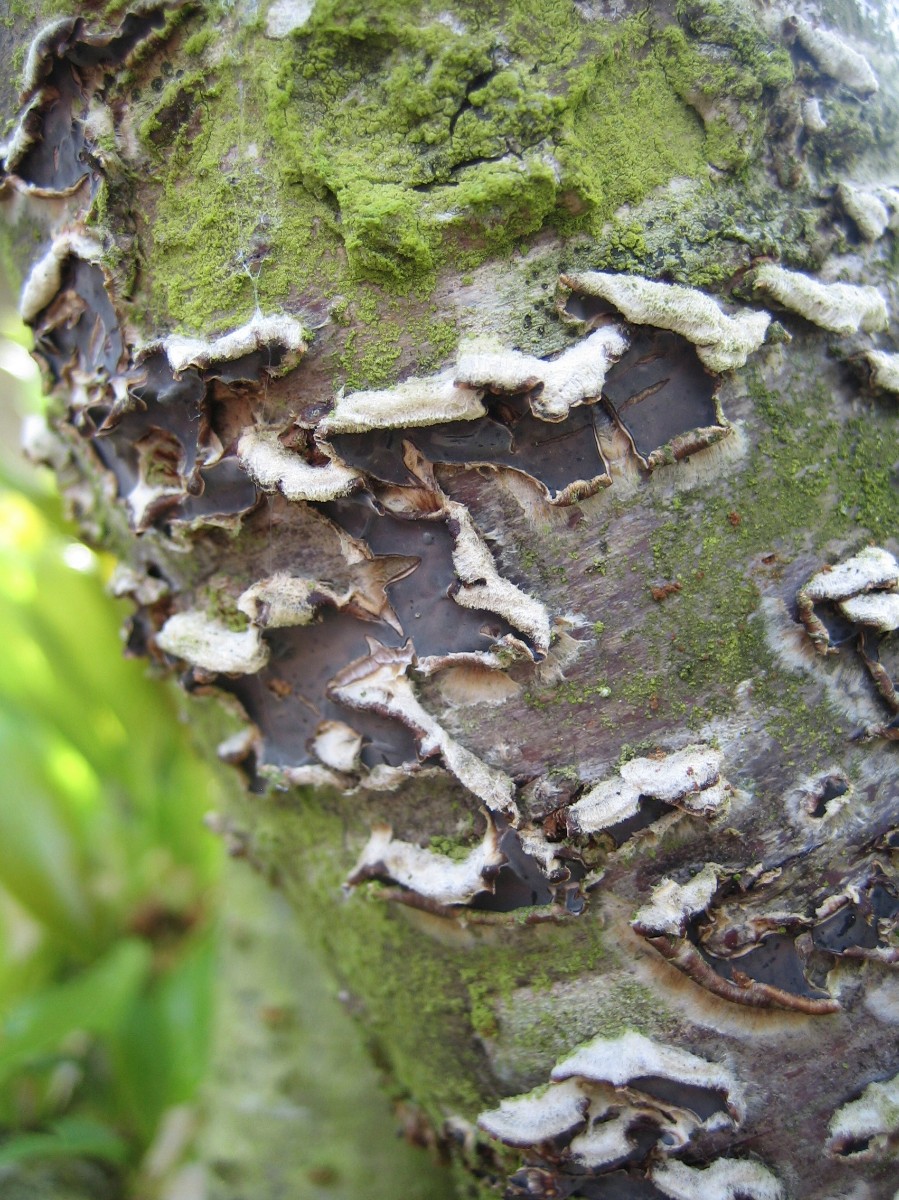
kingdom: Fungi
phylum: Basidiomycota
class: Agaricomycetes
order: Agaricales
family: Cyphellaceae
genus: Chondrostereum
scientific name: Chondrostereum purpureum
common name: purpurlædersvamp
